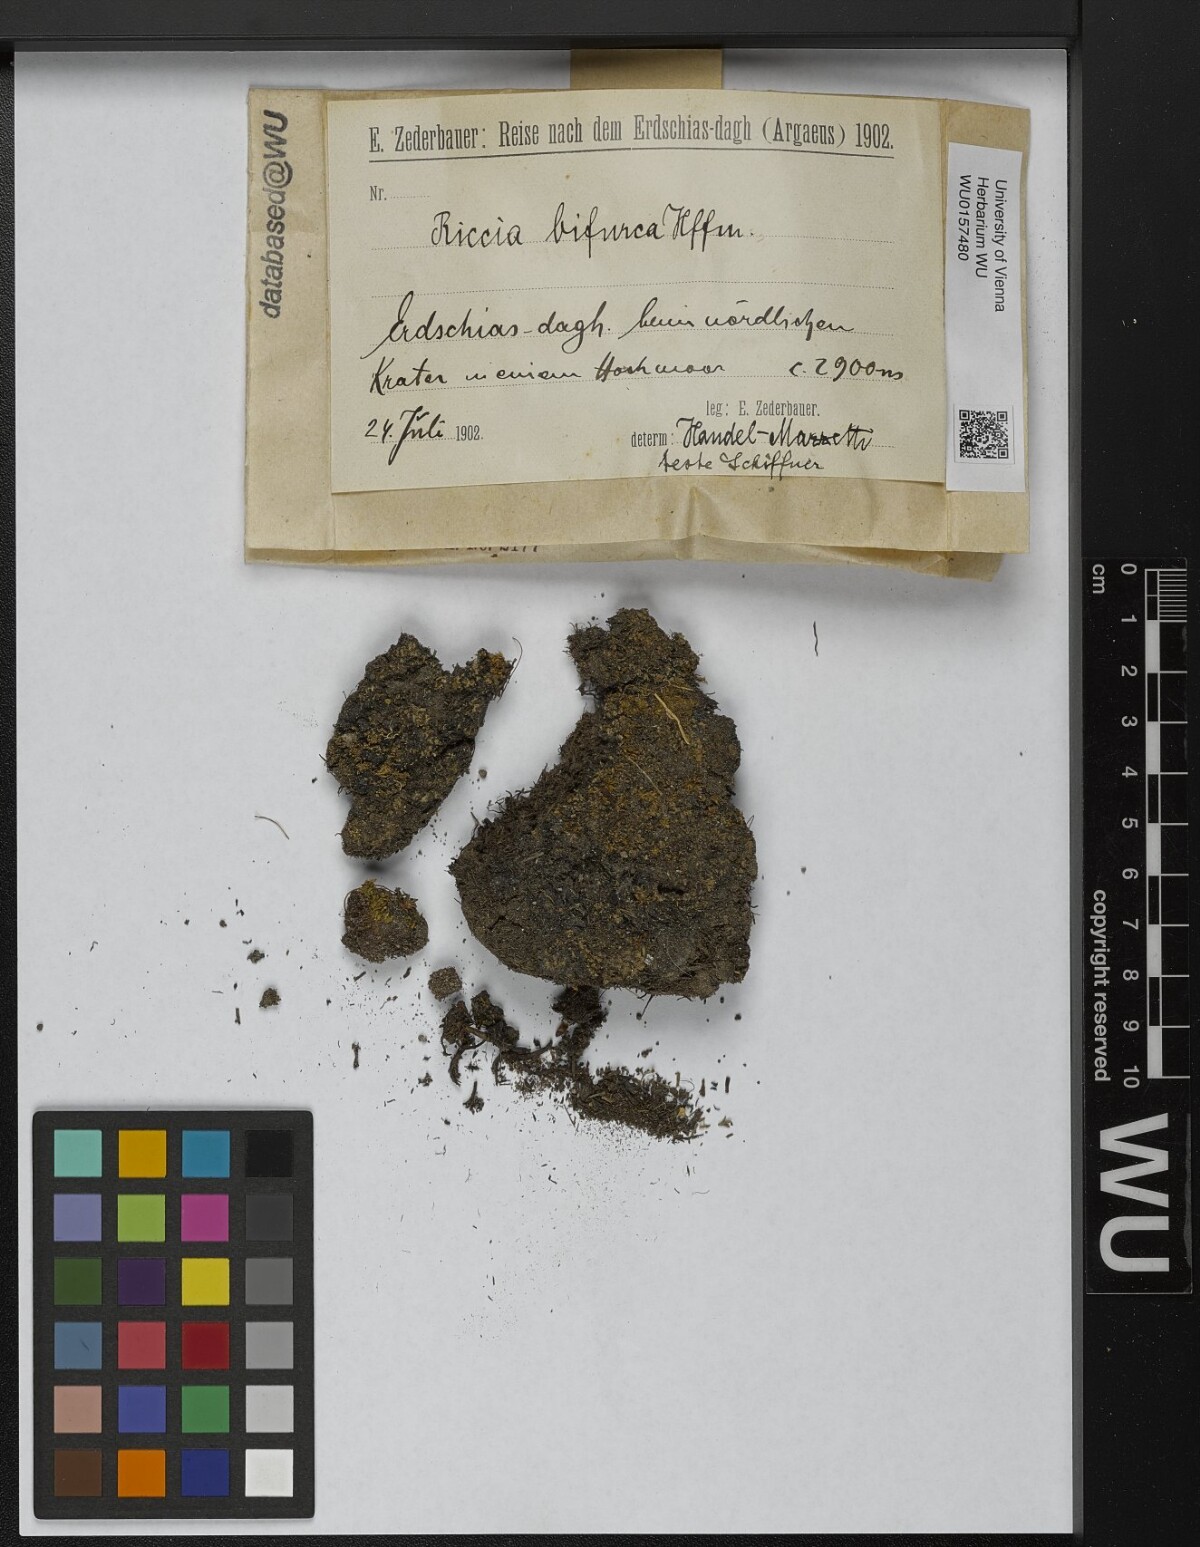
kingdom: Plantae
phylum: Marchantiophyta
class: Marchantiopsida
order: Marchantiales
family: Ricciaceae
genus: Riccia
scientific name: Riccia bifurca
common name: Lizard crystalwort
